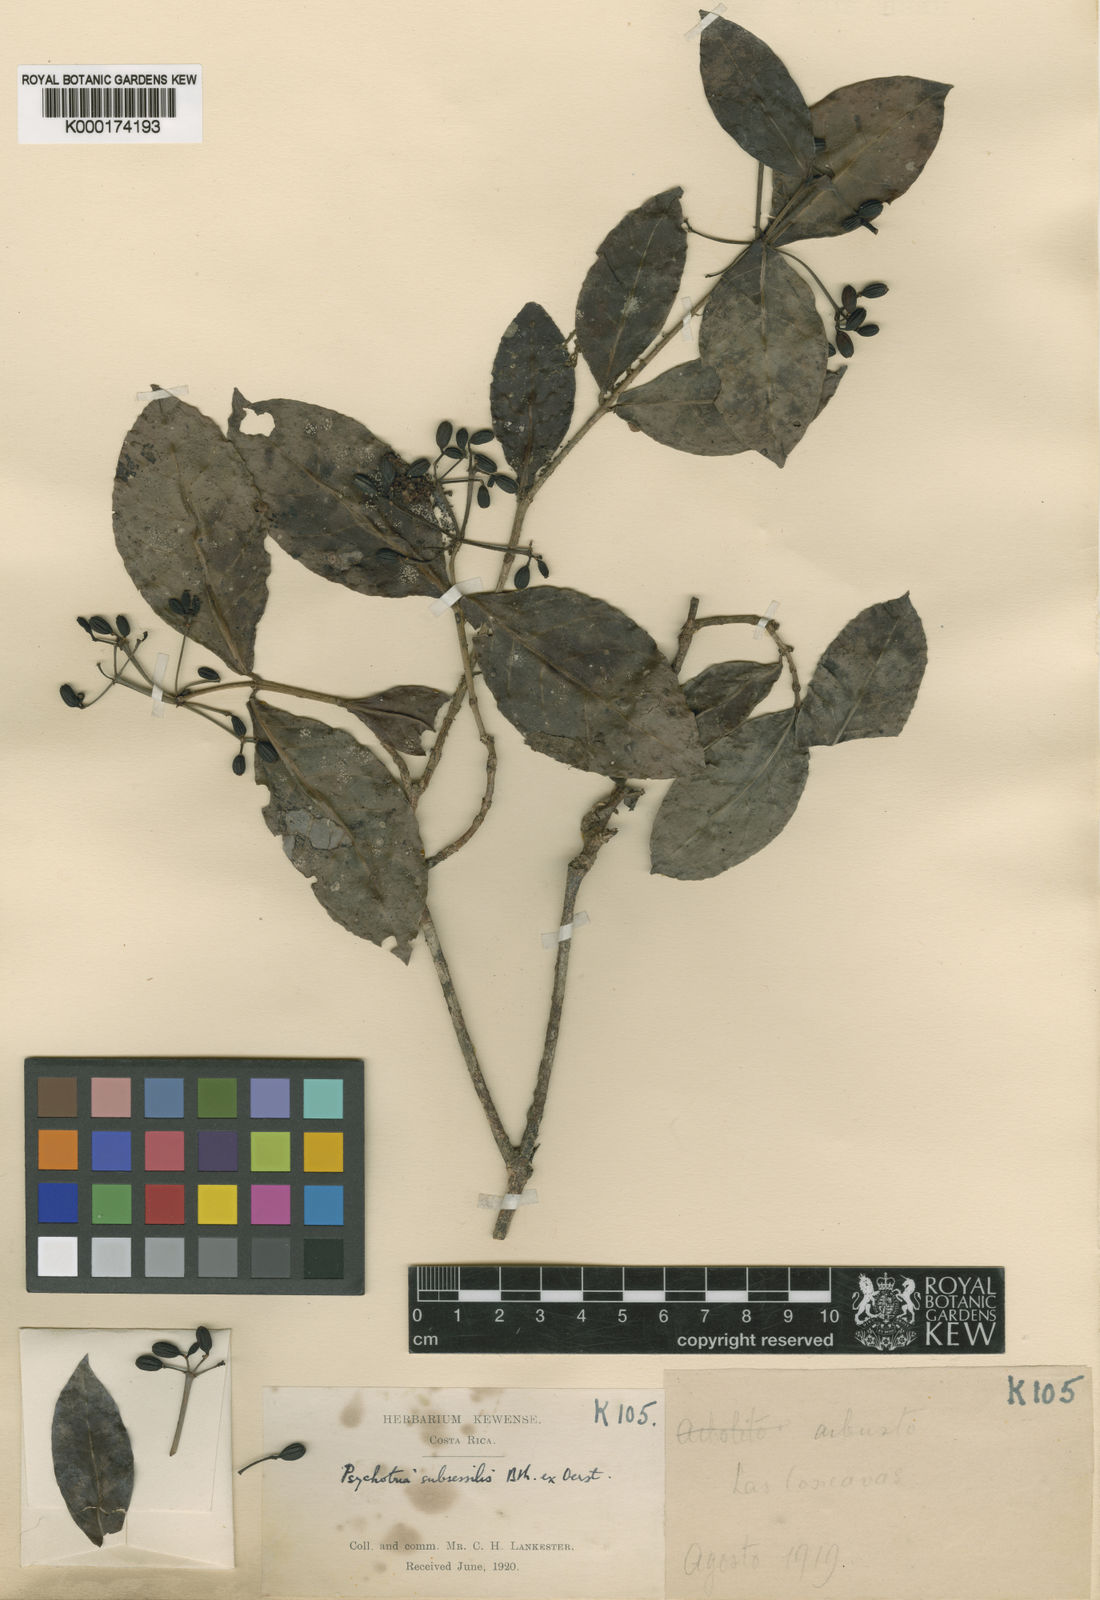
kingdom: Plantae
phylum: Tracheophyta
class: Magnoliopsida
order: Gentianales
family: Rubiaceae
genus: Psychotria
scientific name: Psychotria
